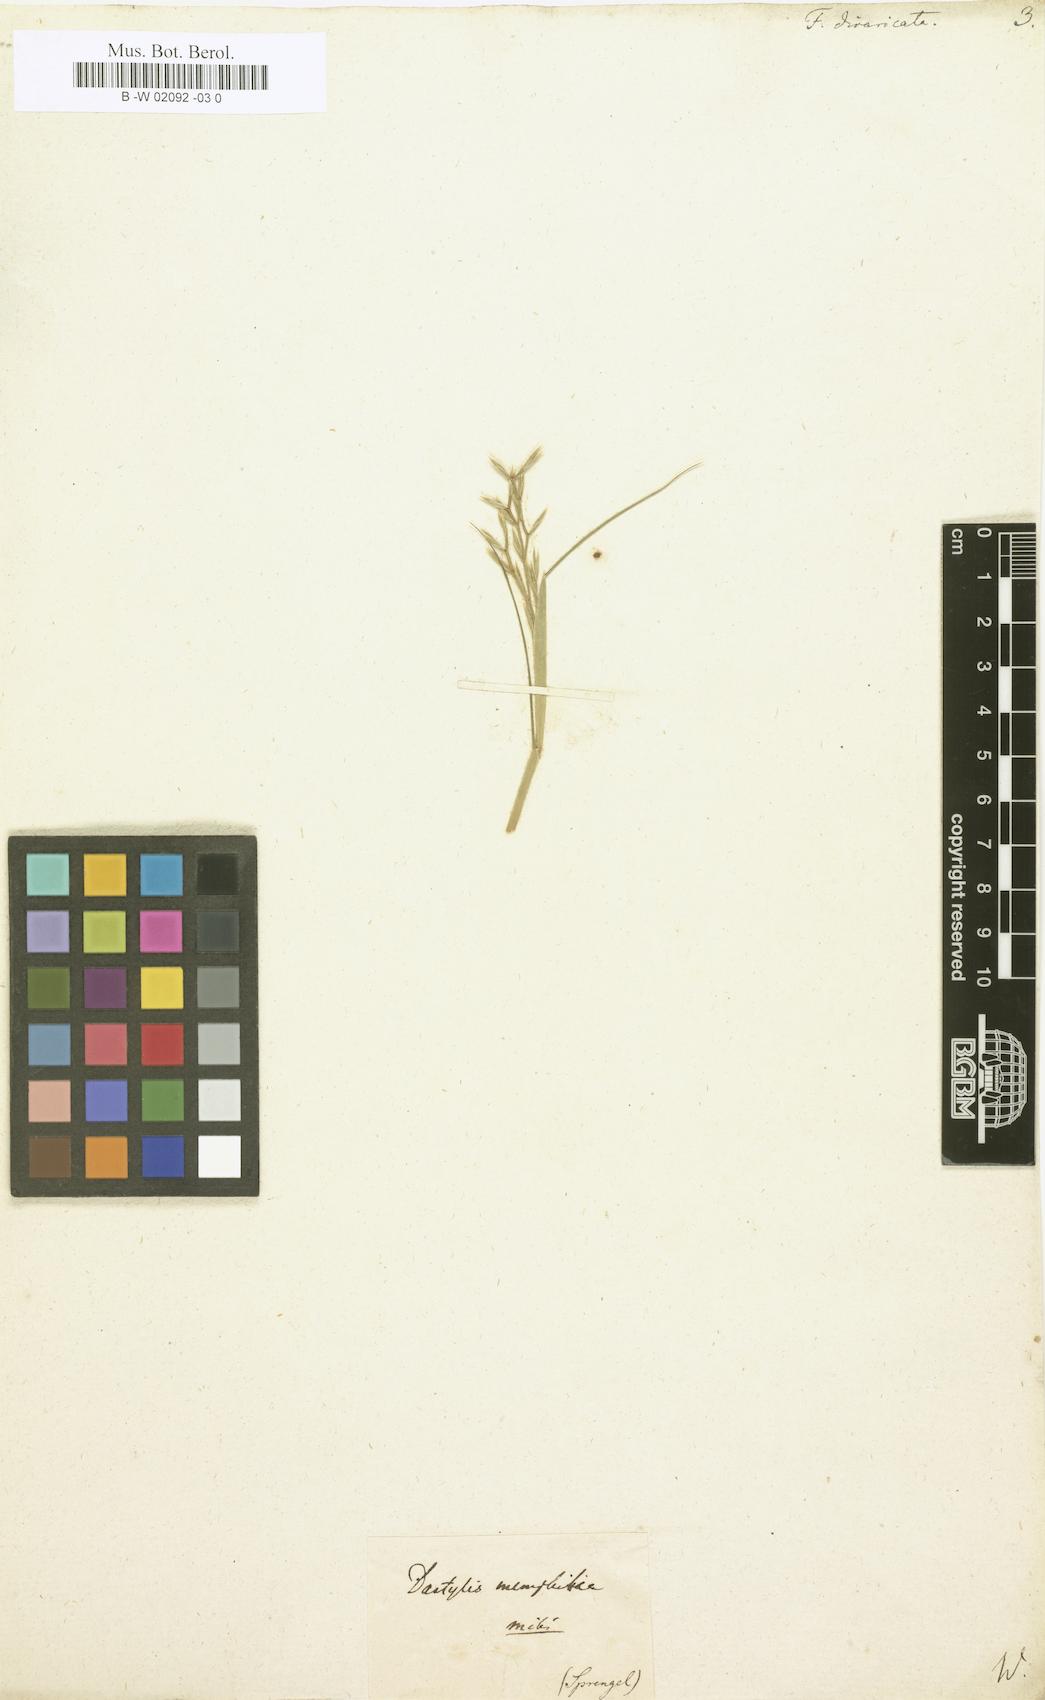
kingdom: Plantae
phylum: Tracheophyta
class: Liliopsida
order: Poales
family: Poaceae
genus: Festuca
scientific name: Festuca divaricata
